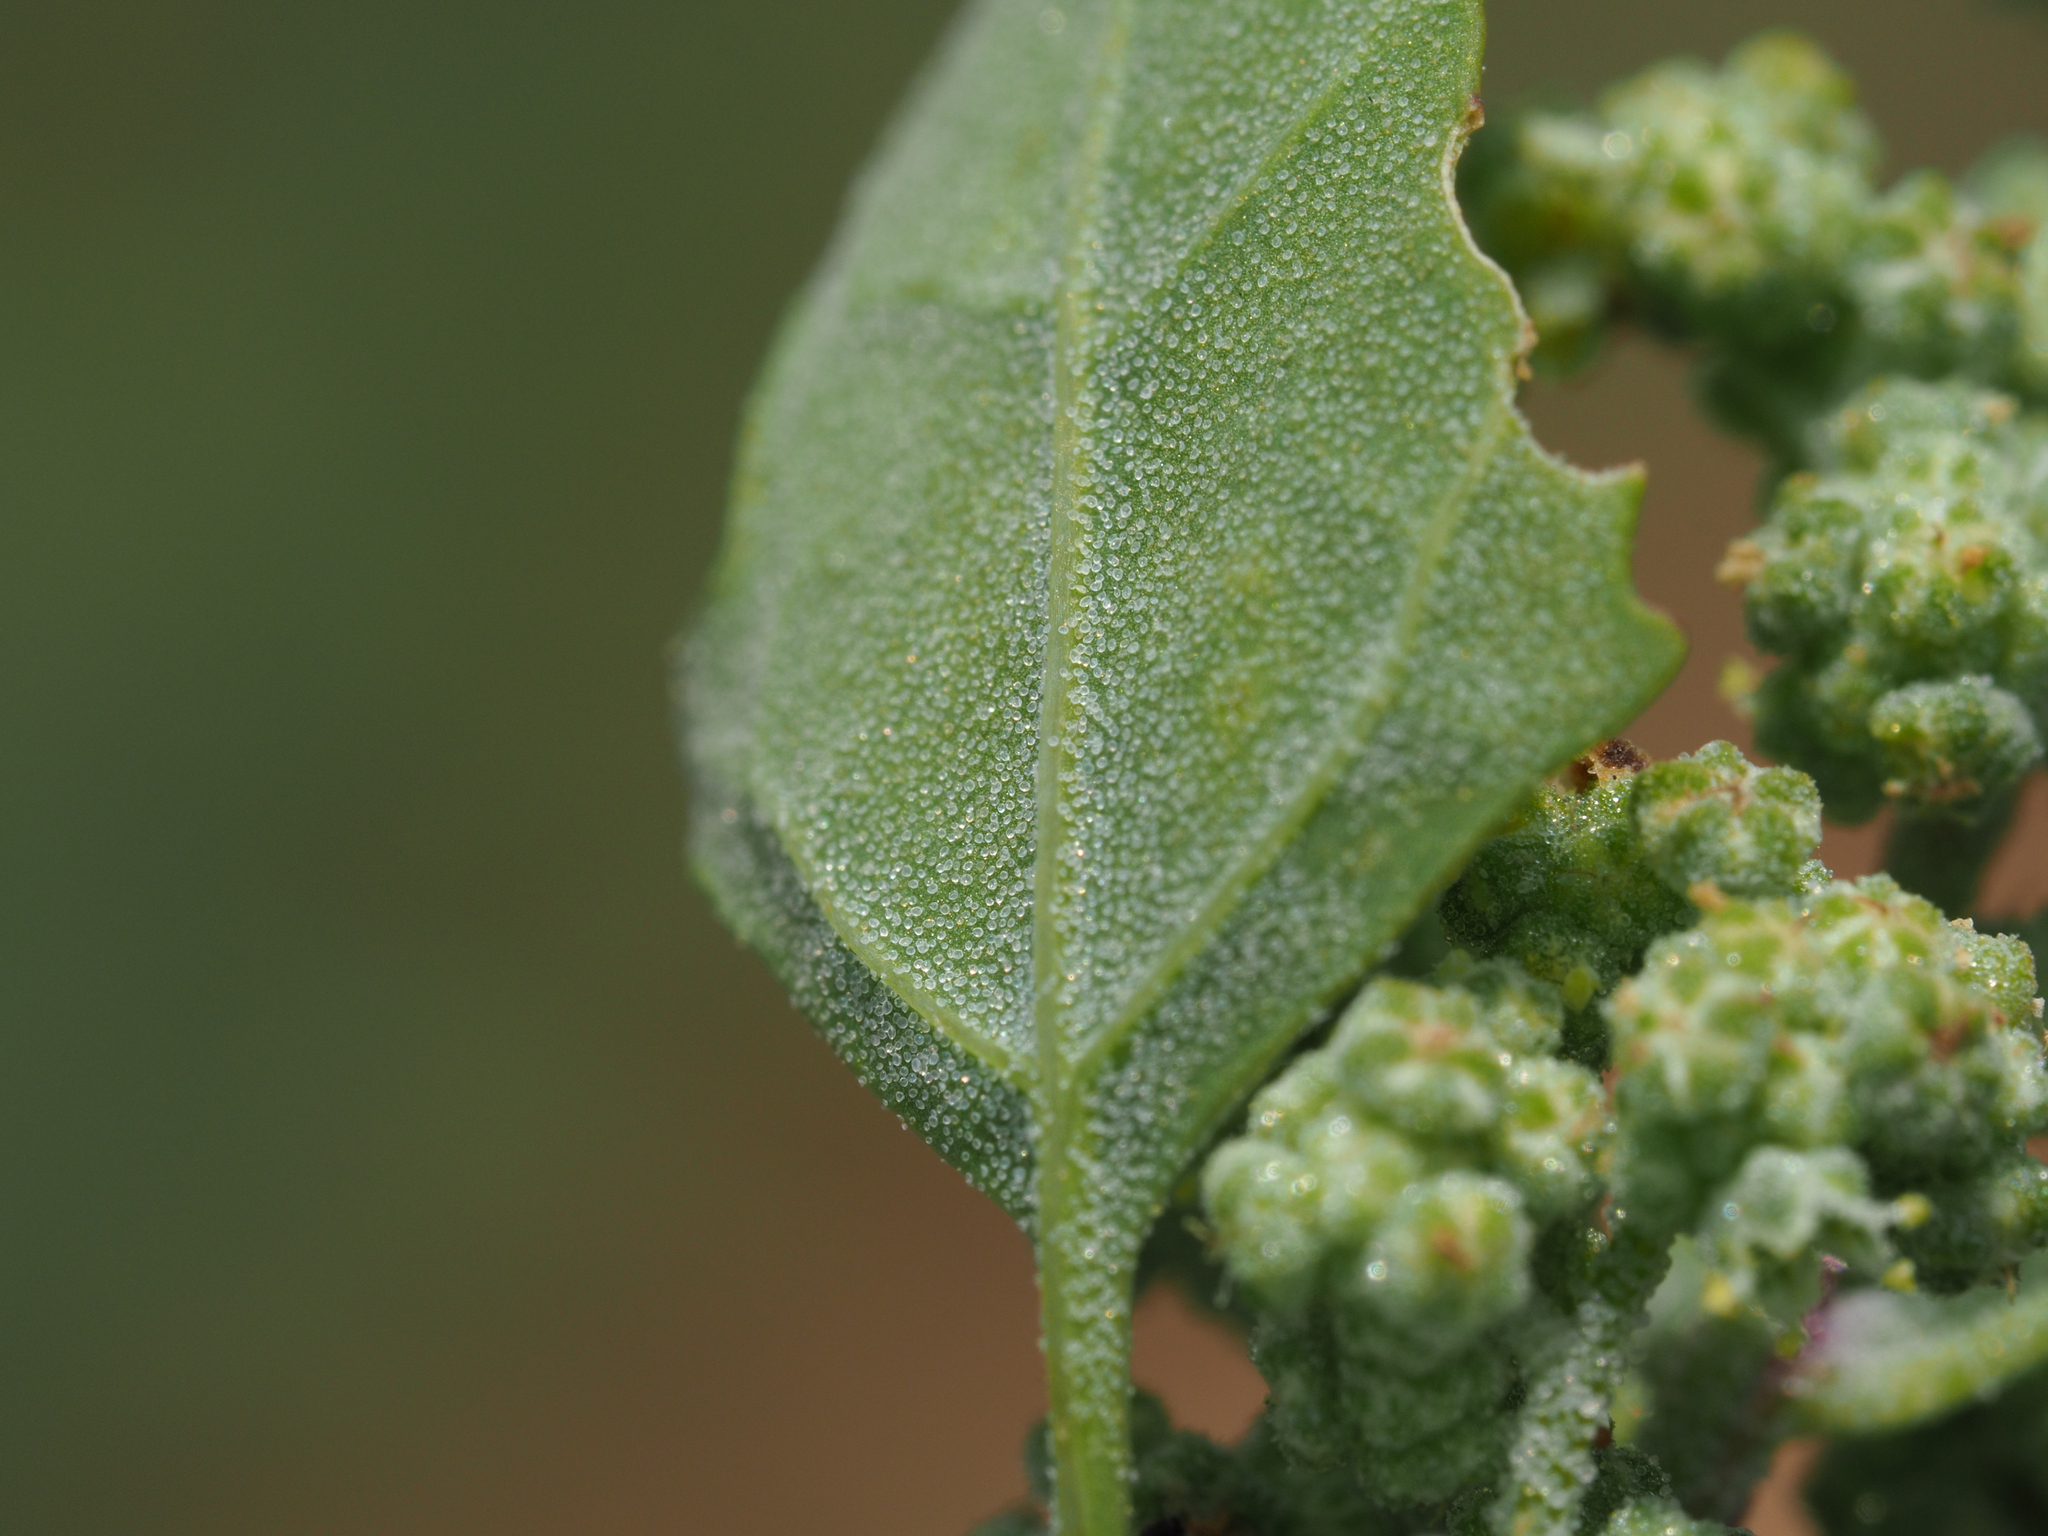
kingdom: Plantae
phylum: Tracheophyta
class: Magnoliopsida
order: Caryophyllales
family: Amaranthaceae
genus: Atriplex
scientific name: Atriplex tatarica
